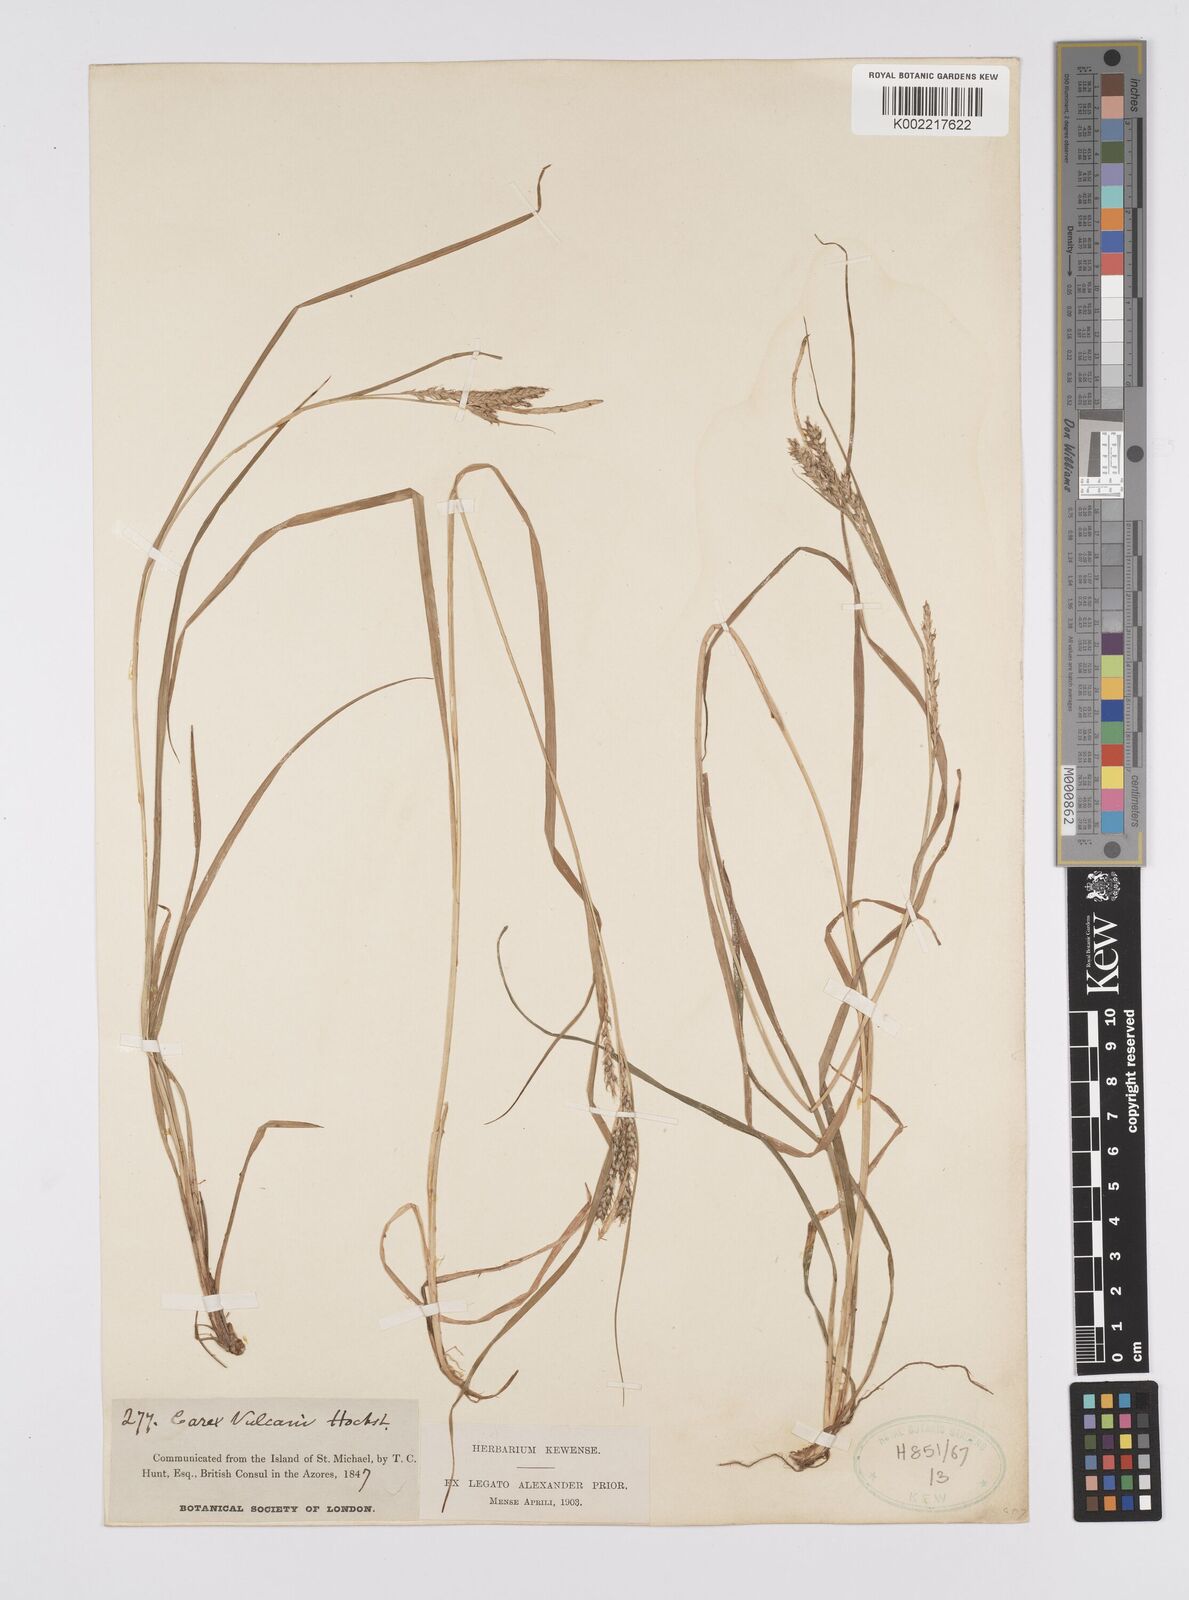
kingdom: Plantae
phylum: Tracheophyta
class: Liliopsida
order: Poales
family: Cyperaceae
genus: Carex
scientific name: Carex vulcani
